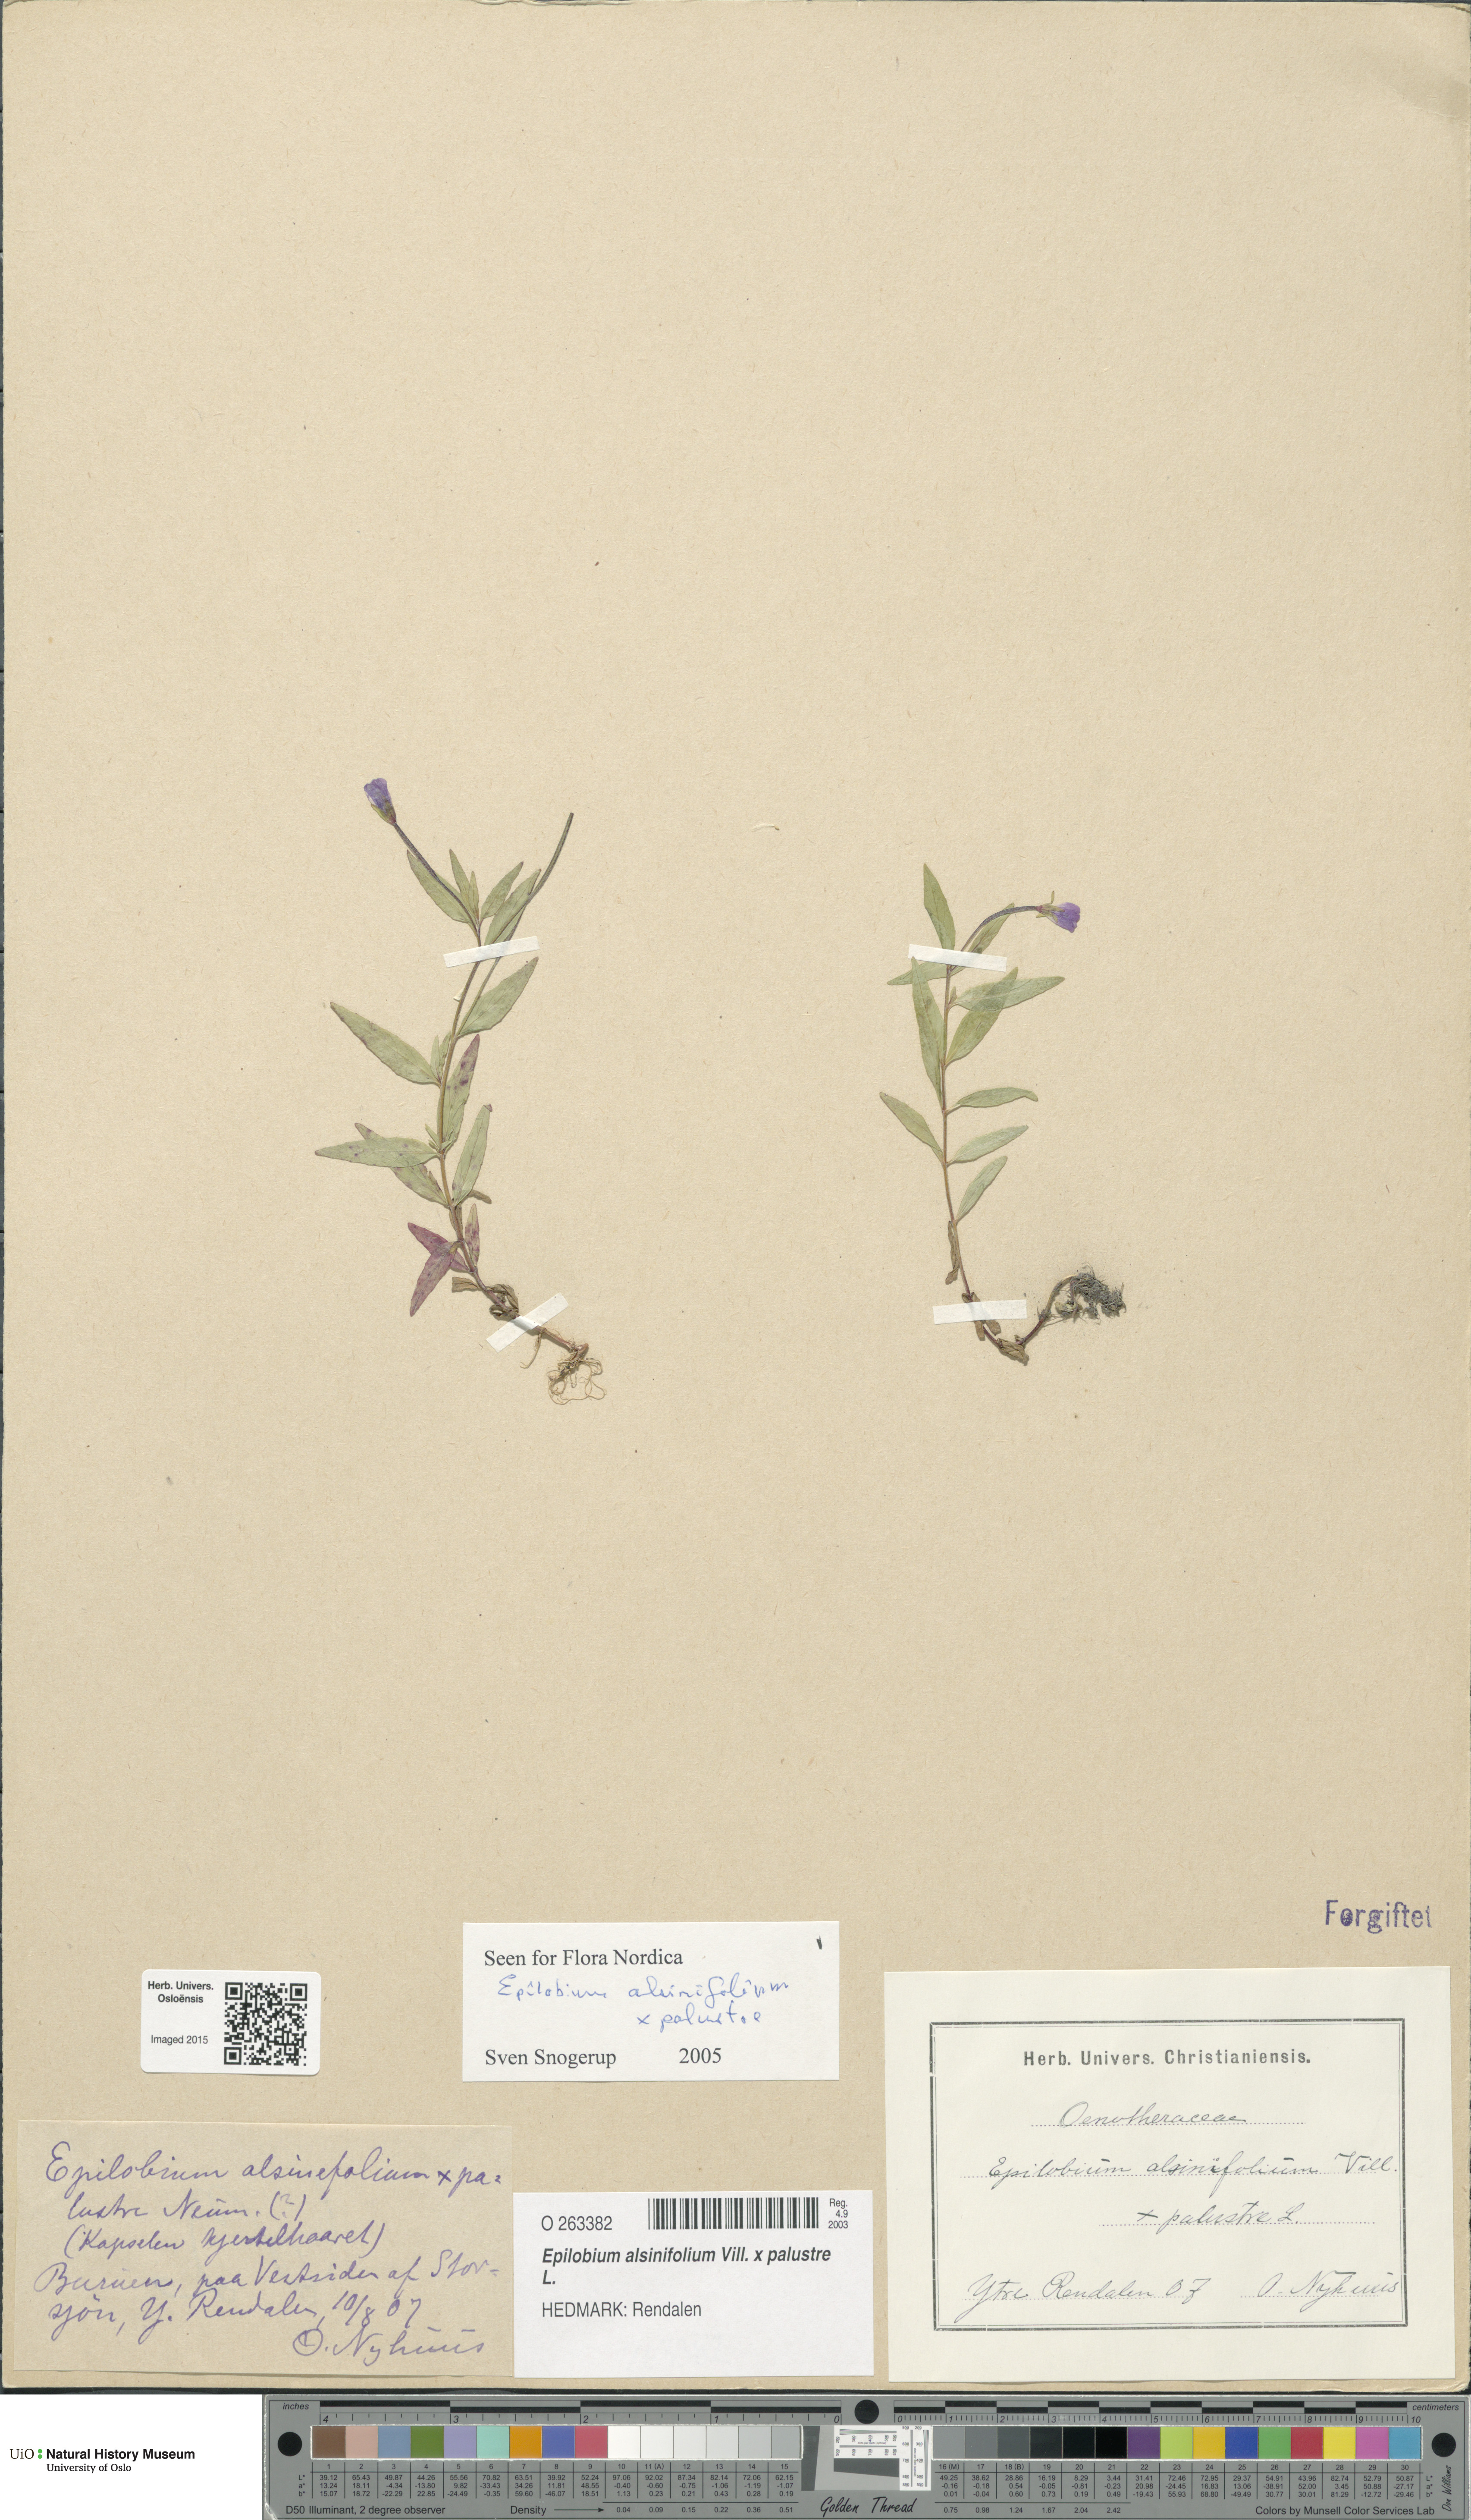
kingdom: Plantae
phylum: Tracheophyta
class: Magnoliopsida
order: Myrtales
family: Onagraceae
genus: Epilobium
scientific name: Epilobium
